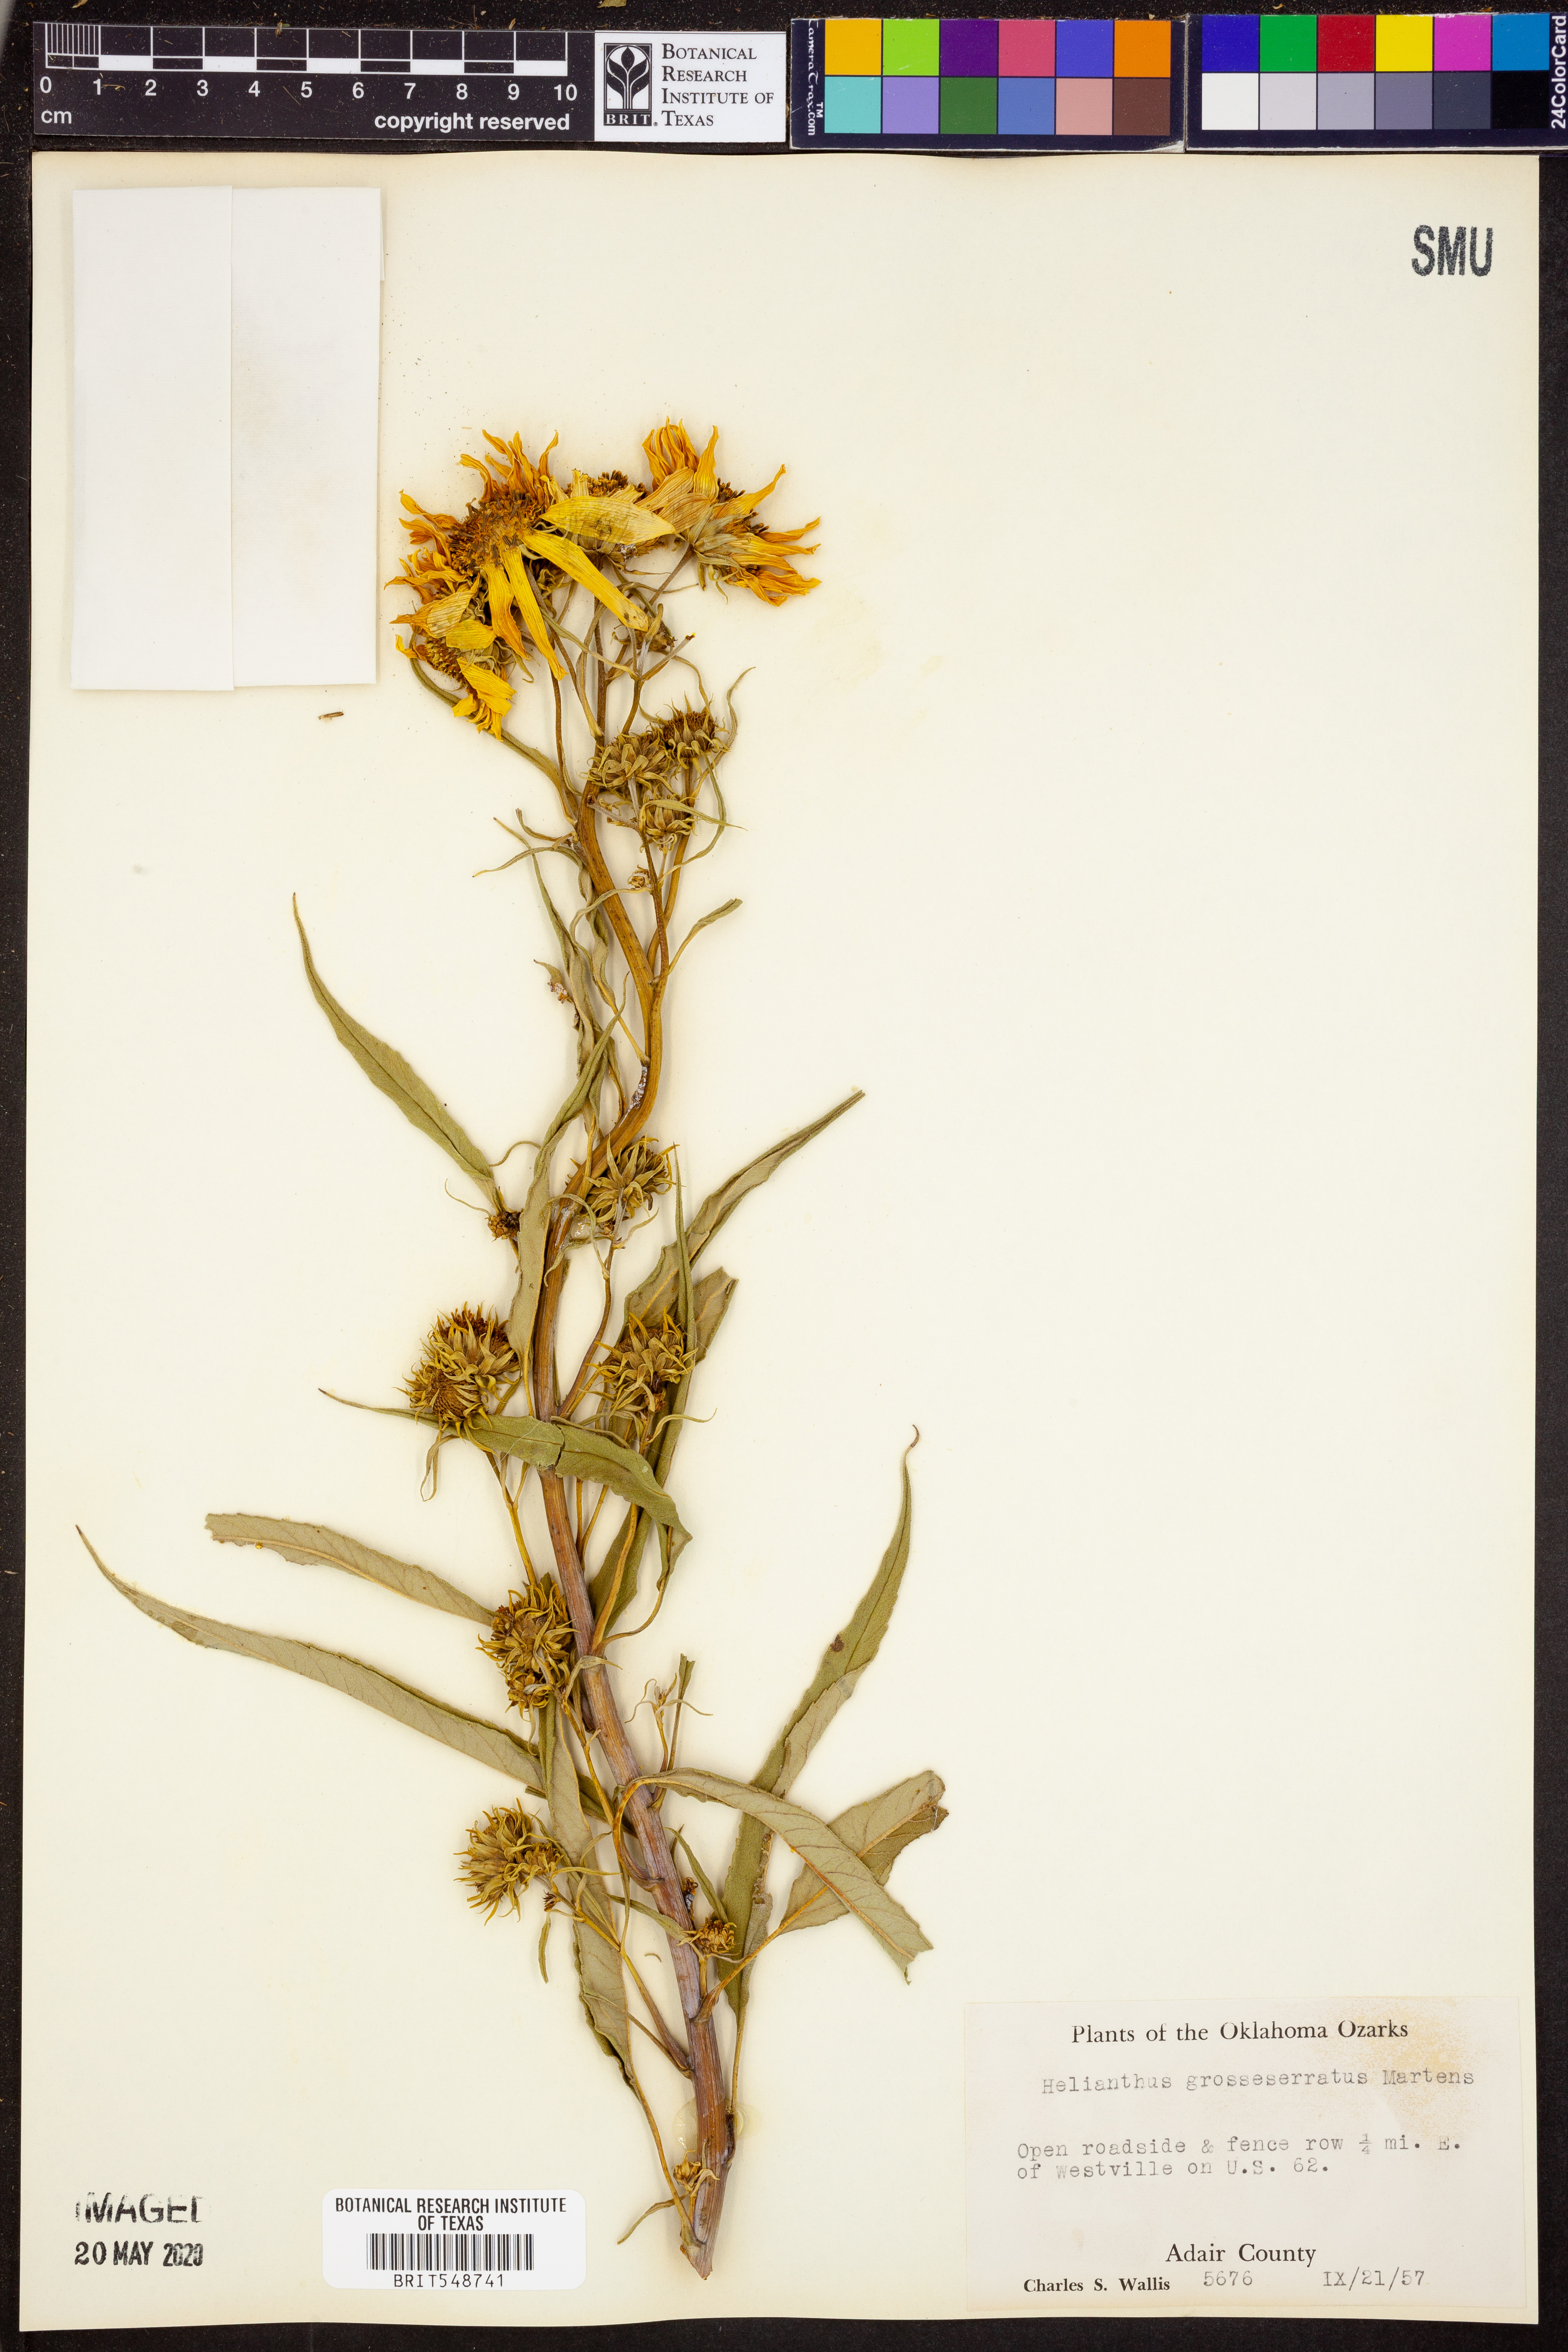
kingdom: Plantae
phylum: Tracheophyta
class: Magnoliopsida
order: Asterales
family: Asteraceae
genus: Helianthus
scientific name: Helianthus grosseserratus
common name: Sawtooth sunflower
